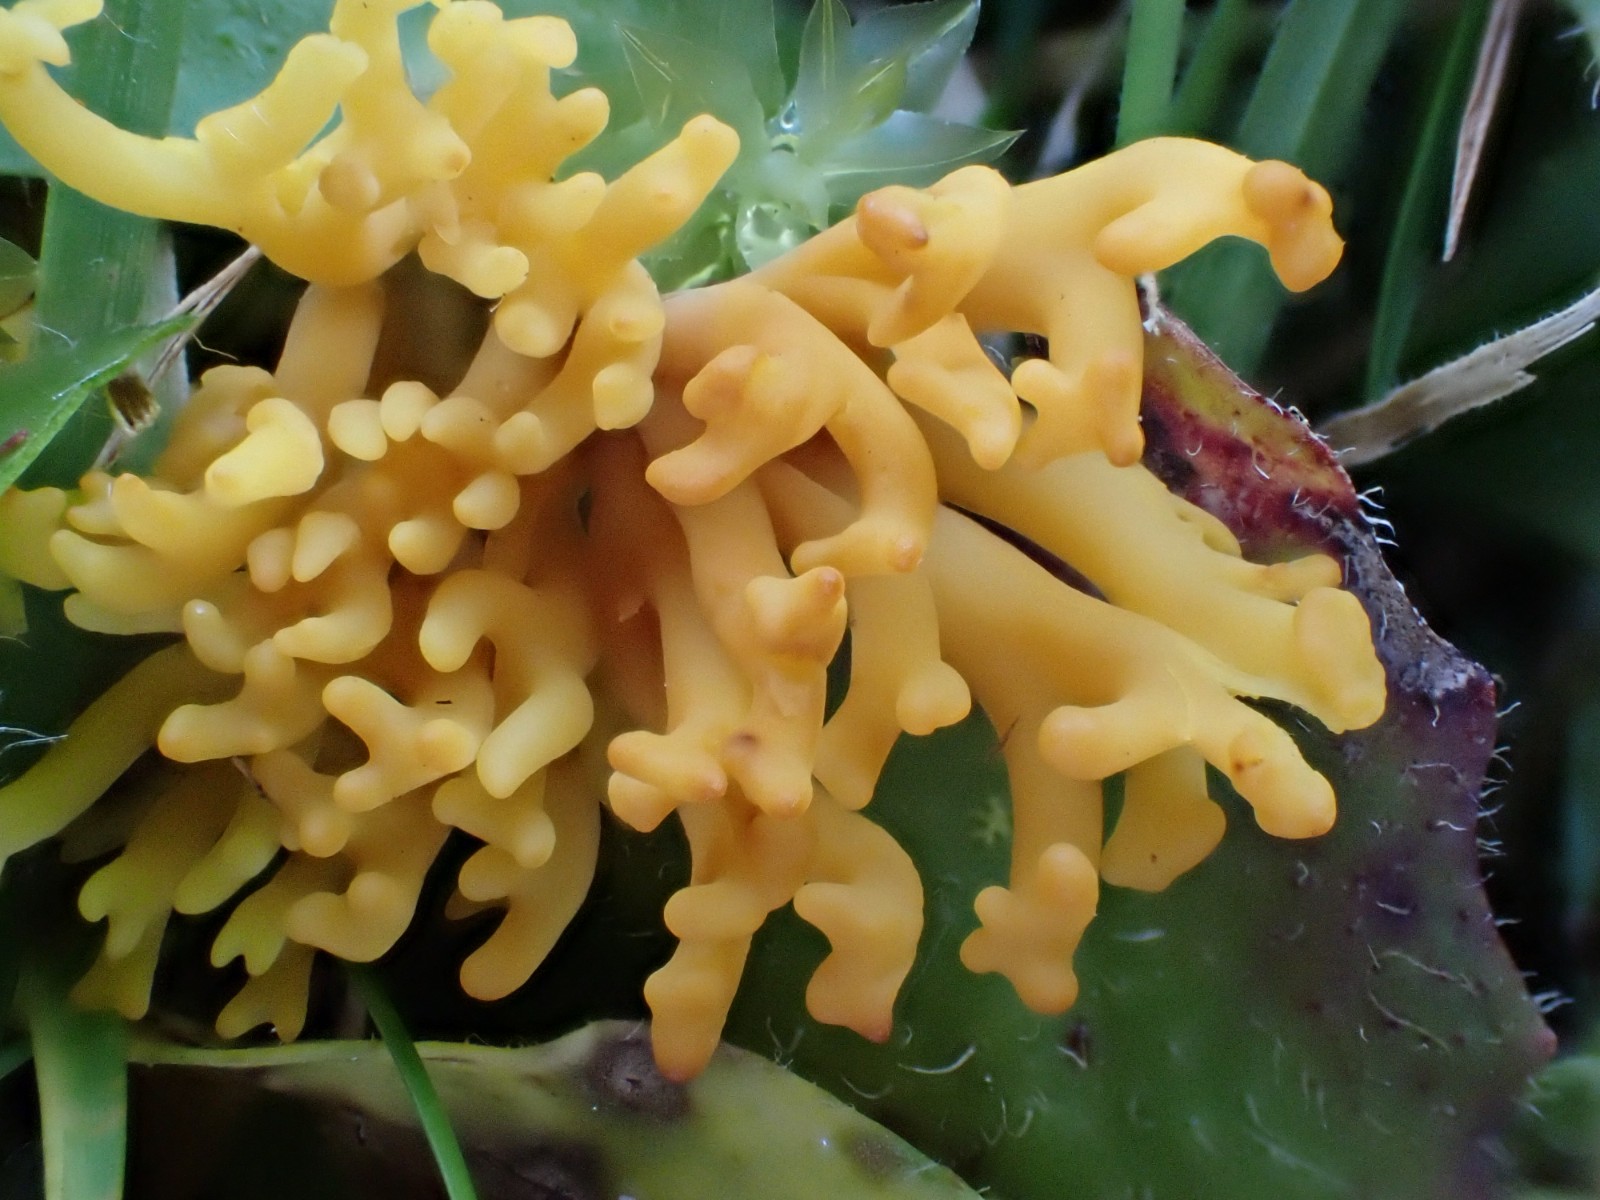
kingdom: Fungi
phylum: Basidiomycota
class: Agaricomycetes
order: Agaricales
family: Clavariaceae
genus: Clavulinopsis
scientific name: Clavulinopsis corniculata
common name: eng-køllesvamp
